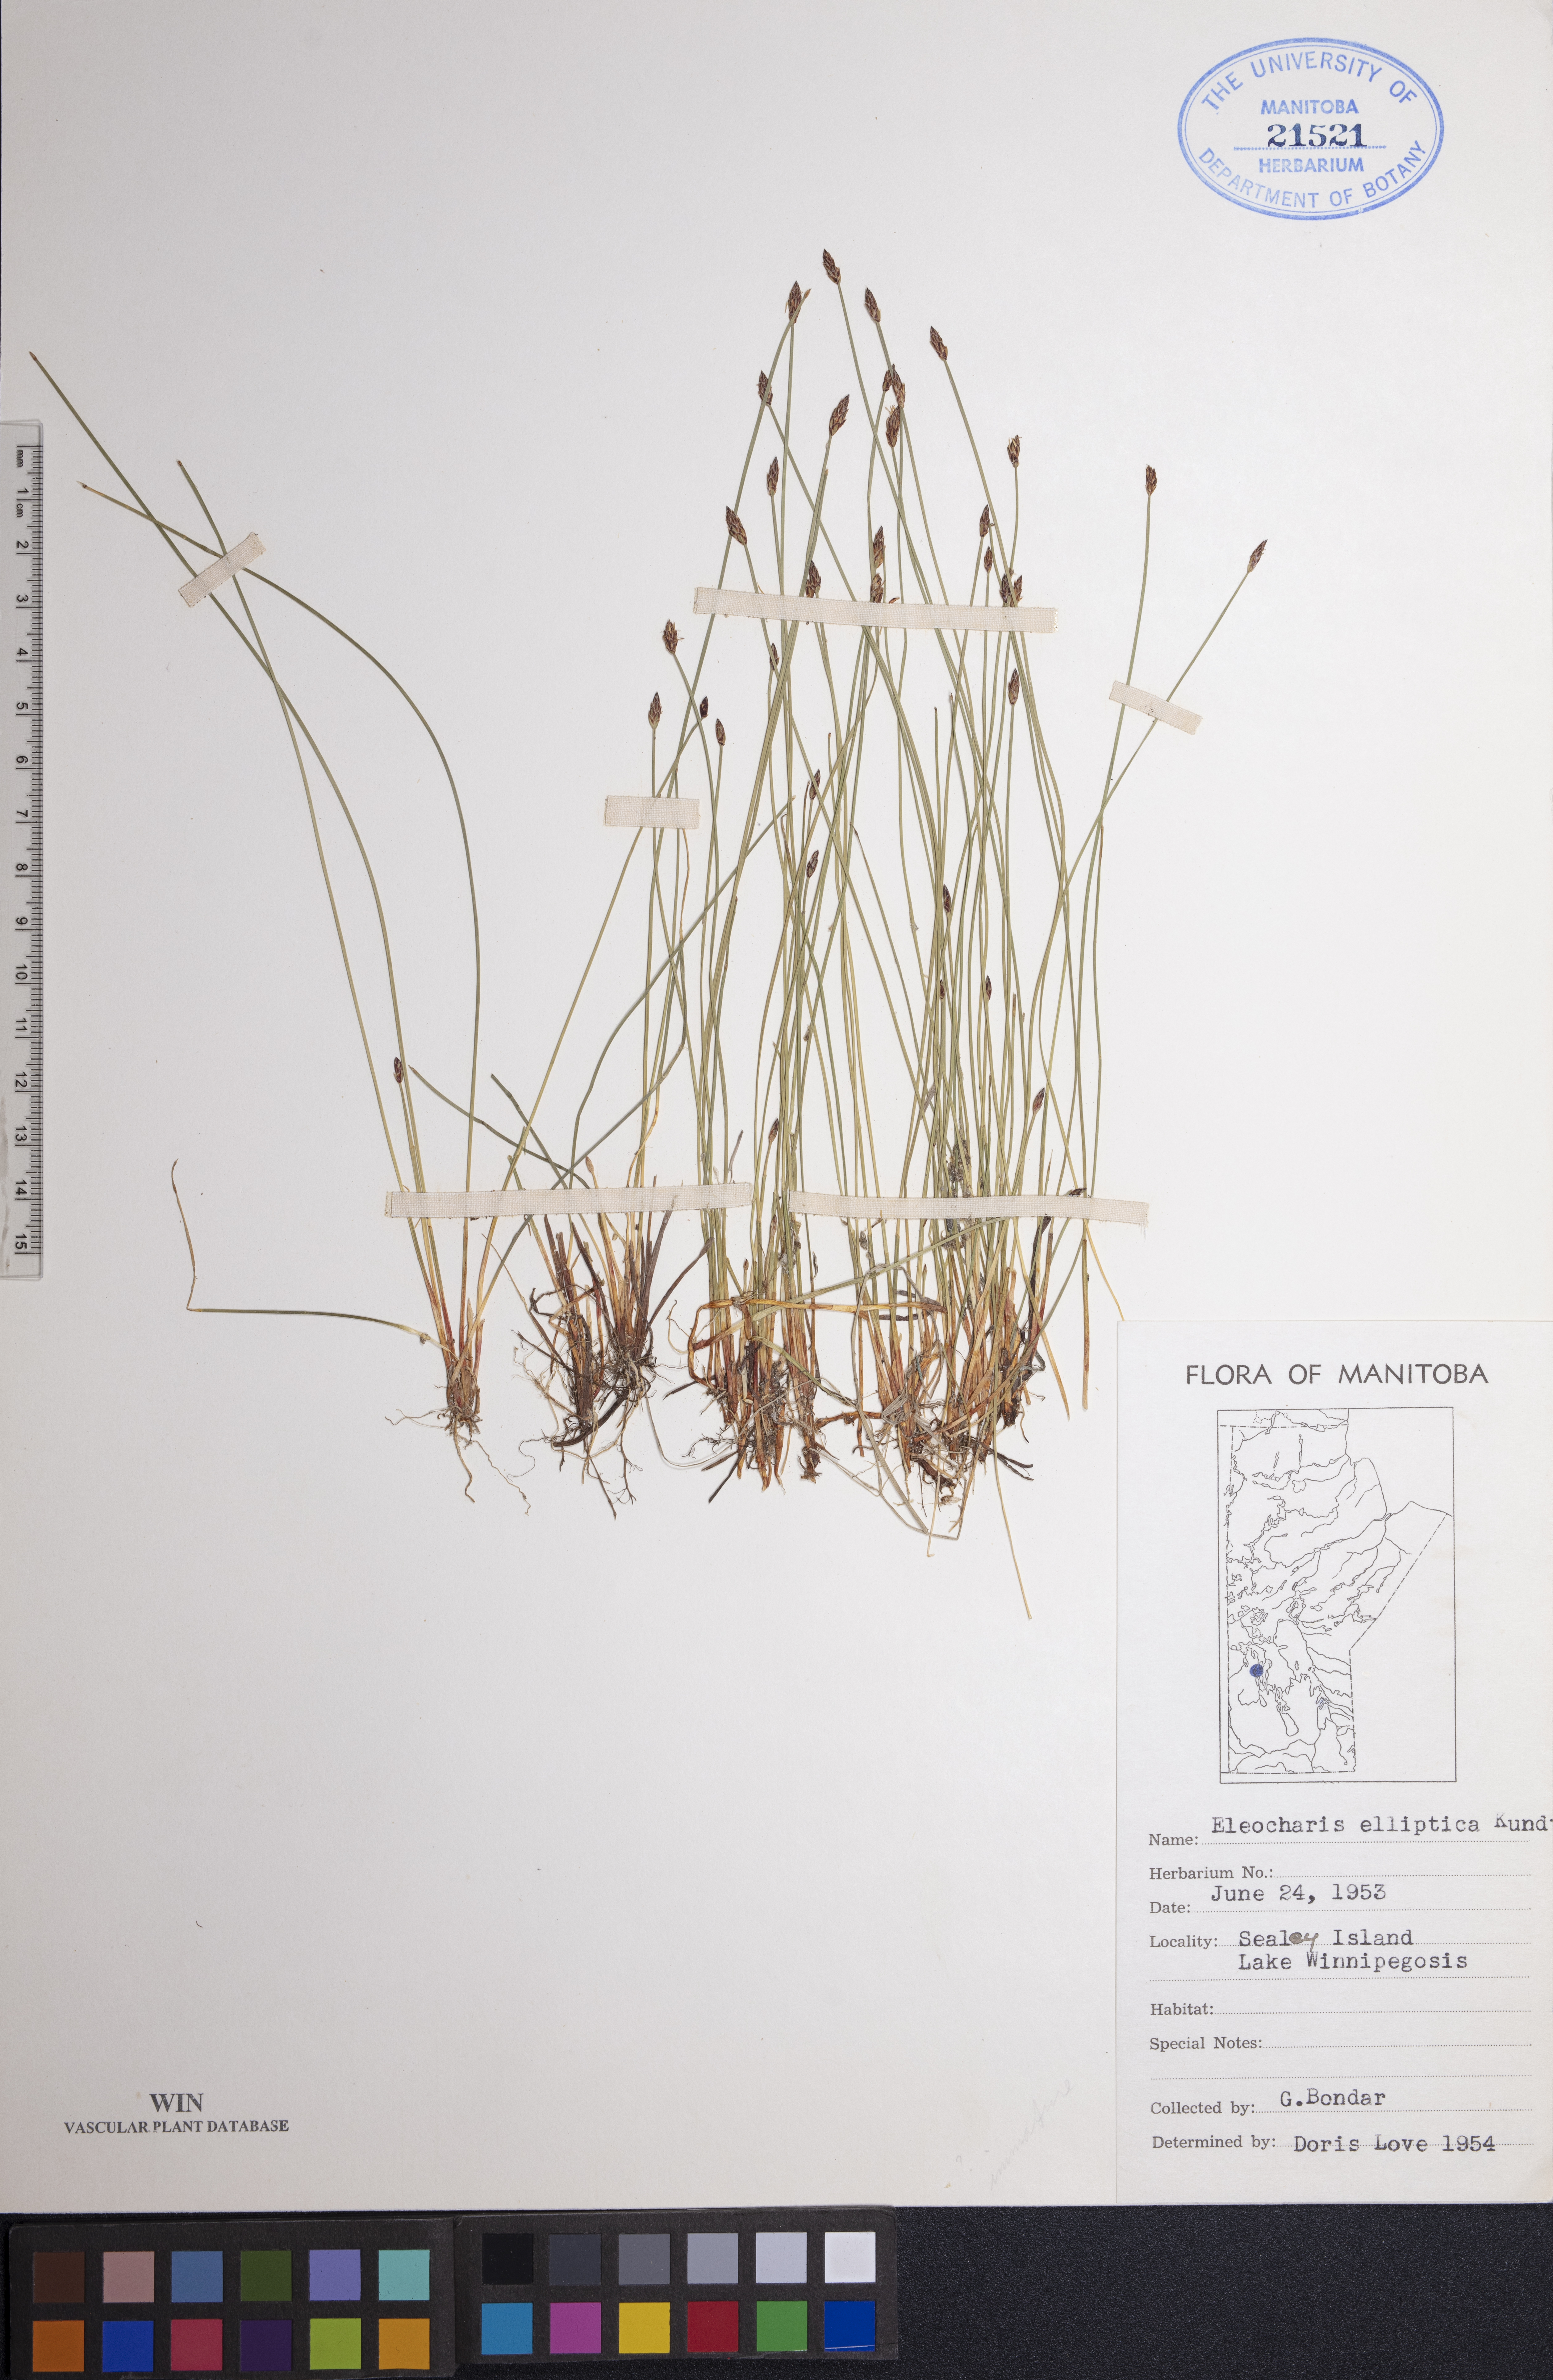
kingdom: Plantae
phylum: Tracheophyta
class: Liliopsida
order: Poales
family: Cyperaceae
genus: Eleocharis
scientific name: Eleocharis elliptica
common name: Capitate spikerush
